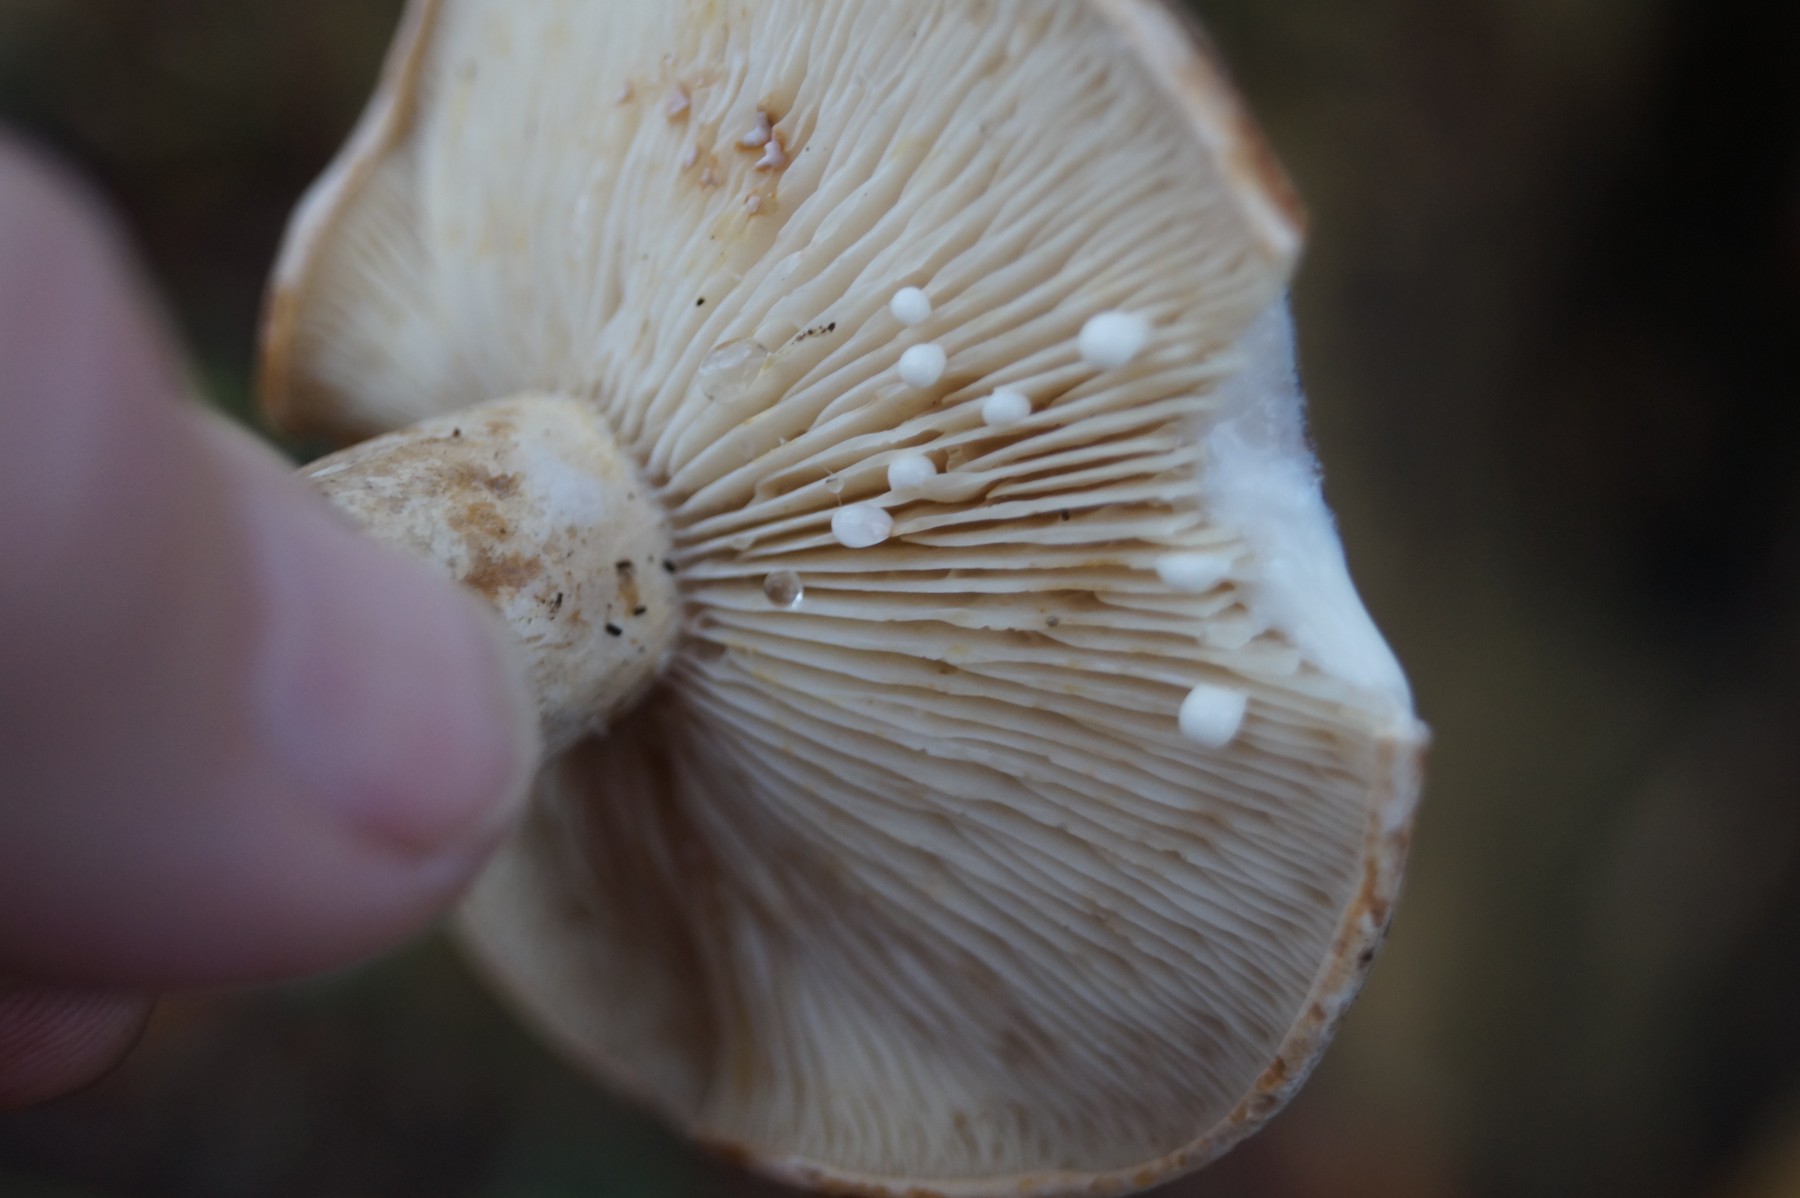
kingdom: Fungi
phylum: Basidiomycota
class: Agaricomycetes
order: Russulales
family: Russulaceae
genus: Lactarius
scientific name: Lactarius pyrogalus
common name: hassel-mælkehat
